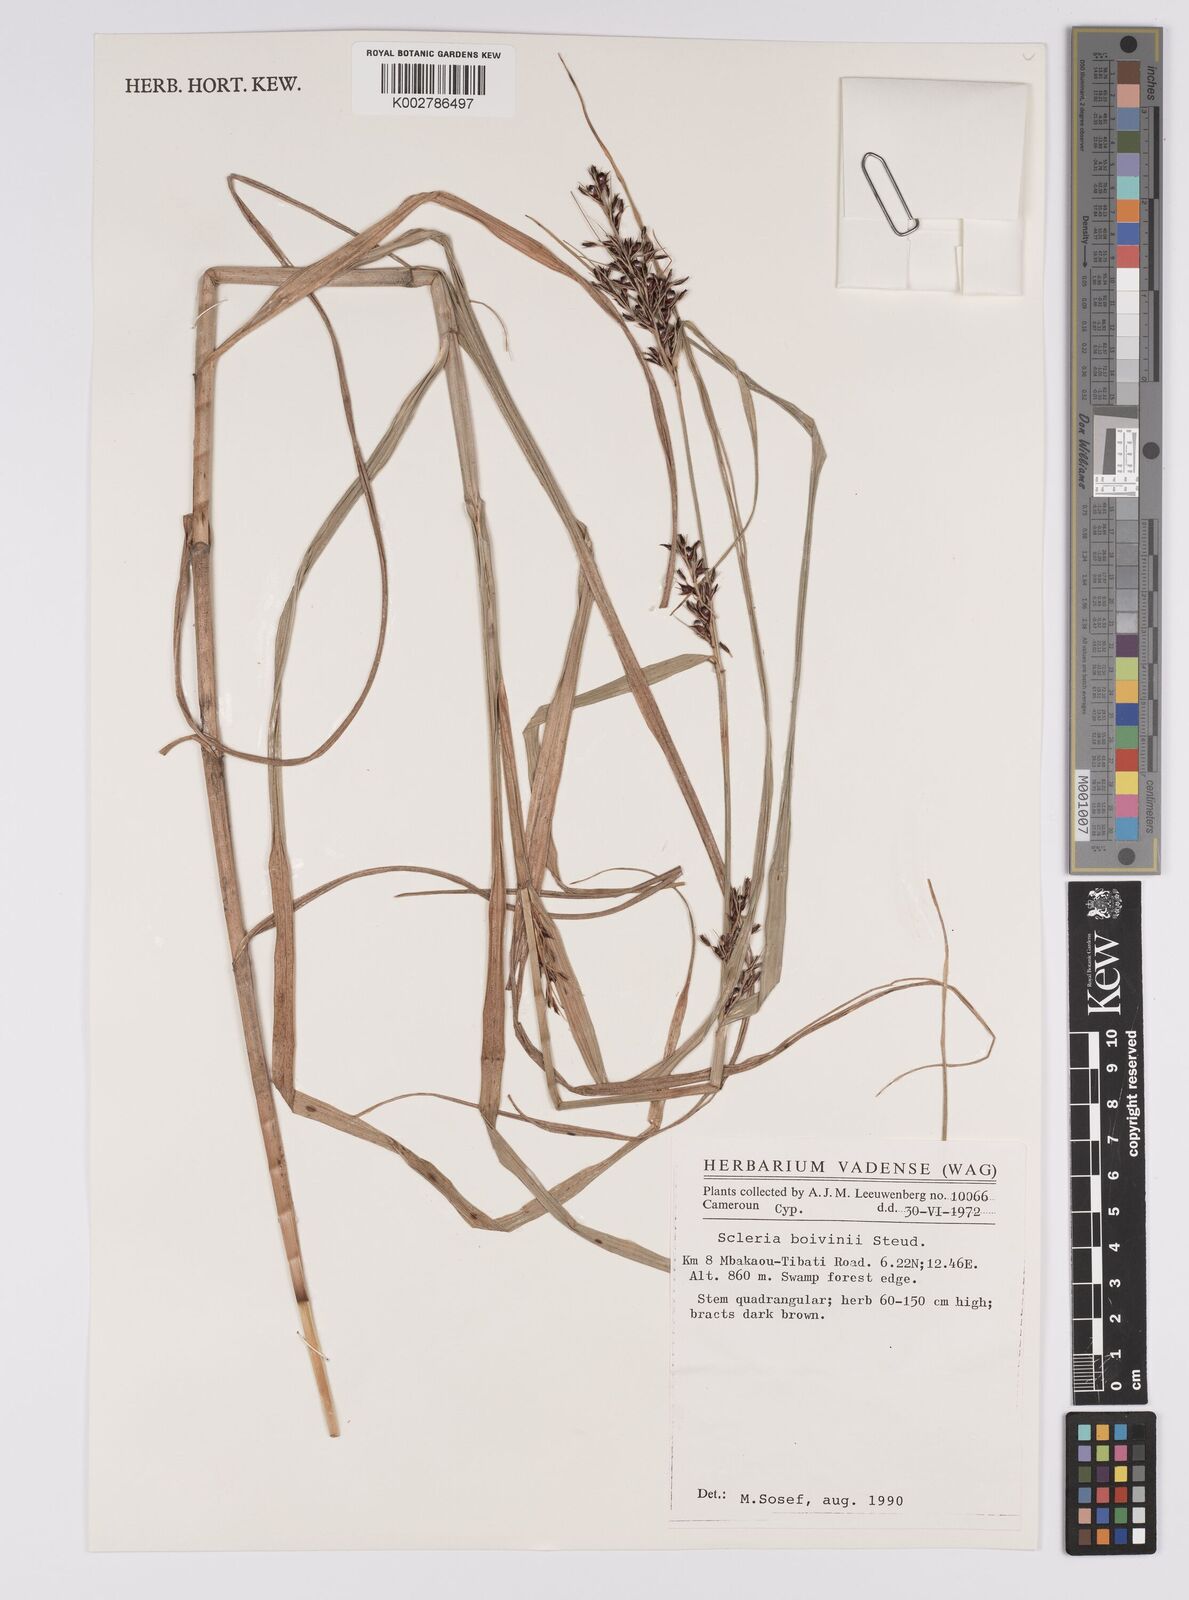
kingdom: Plantae
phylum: Tracheophyta
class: Liliopsida
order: Poales
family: Cyperaceae
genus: Scleria
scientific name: Scleria boivinii
